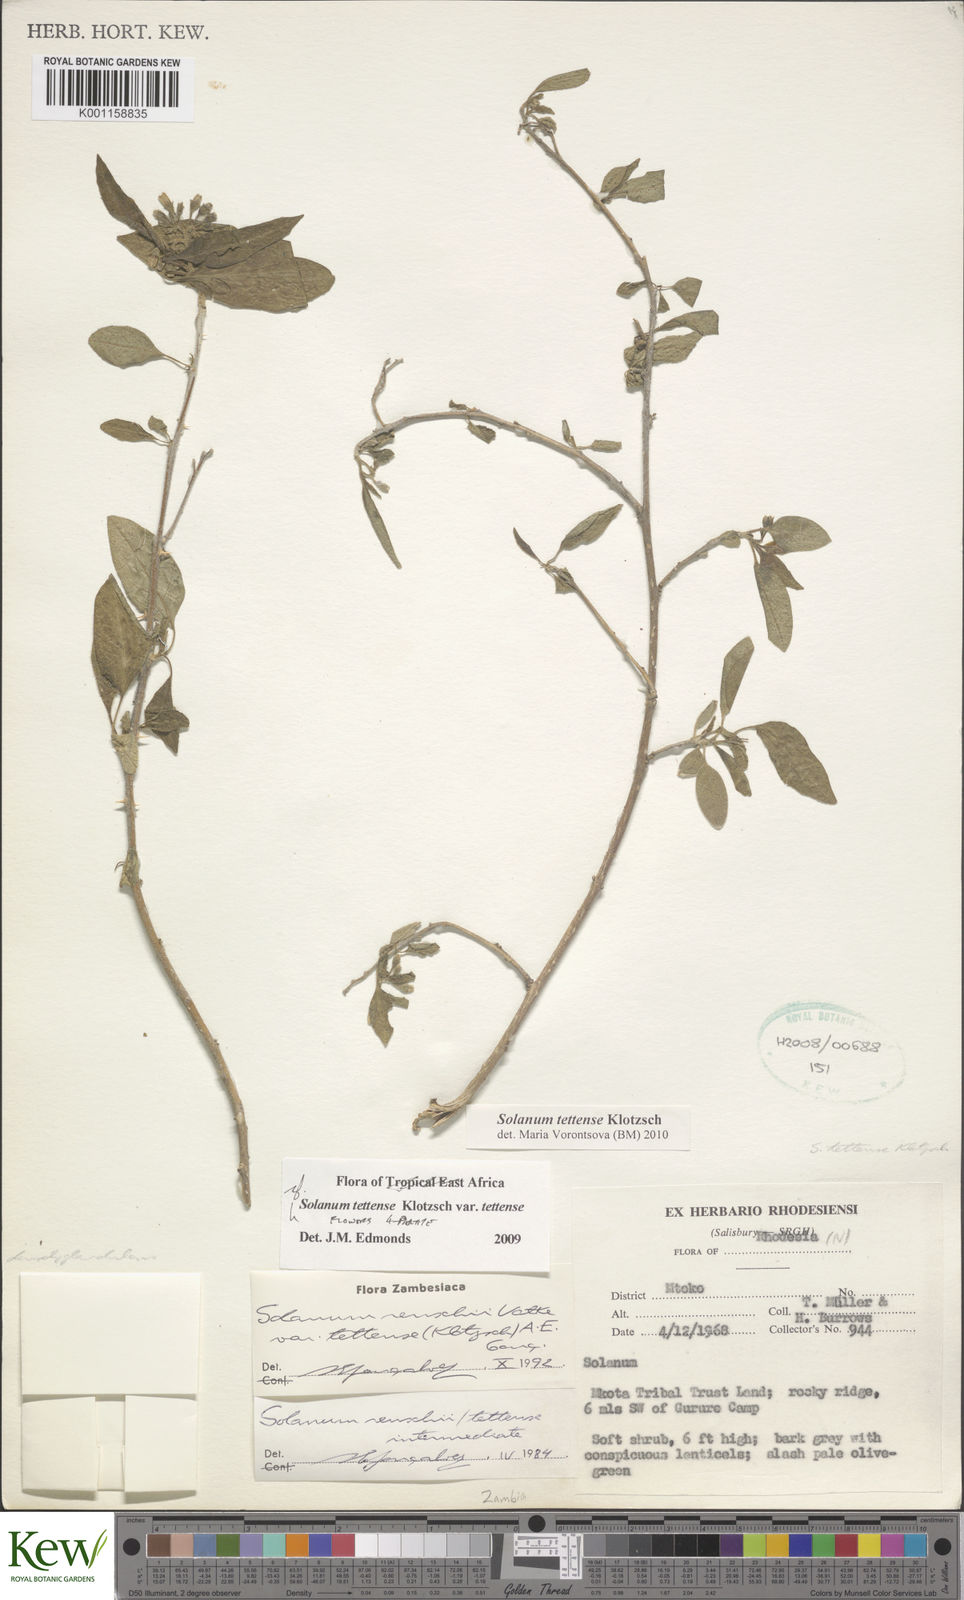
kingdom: Plantae
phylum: Tracheophyta
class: Magnoliopsida
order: Solanales
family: Solanaceae
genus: Solanum
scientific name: Solanum tettense
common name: Mozambique bitter apple
